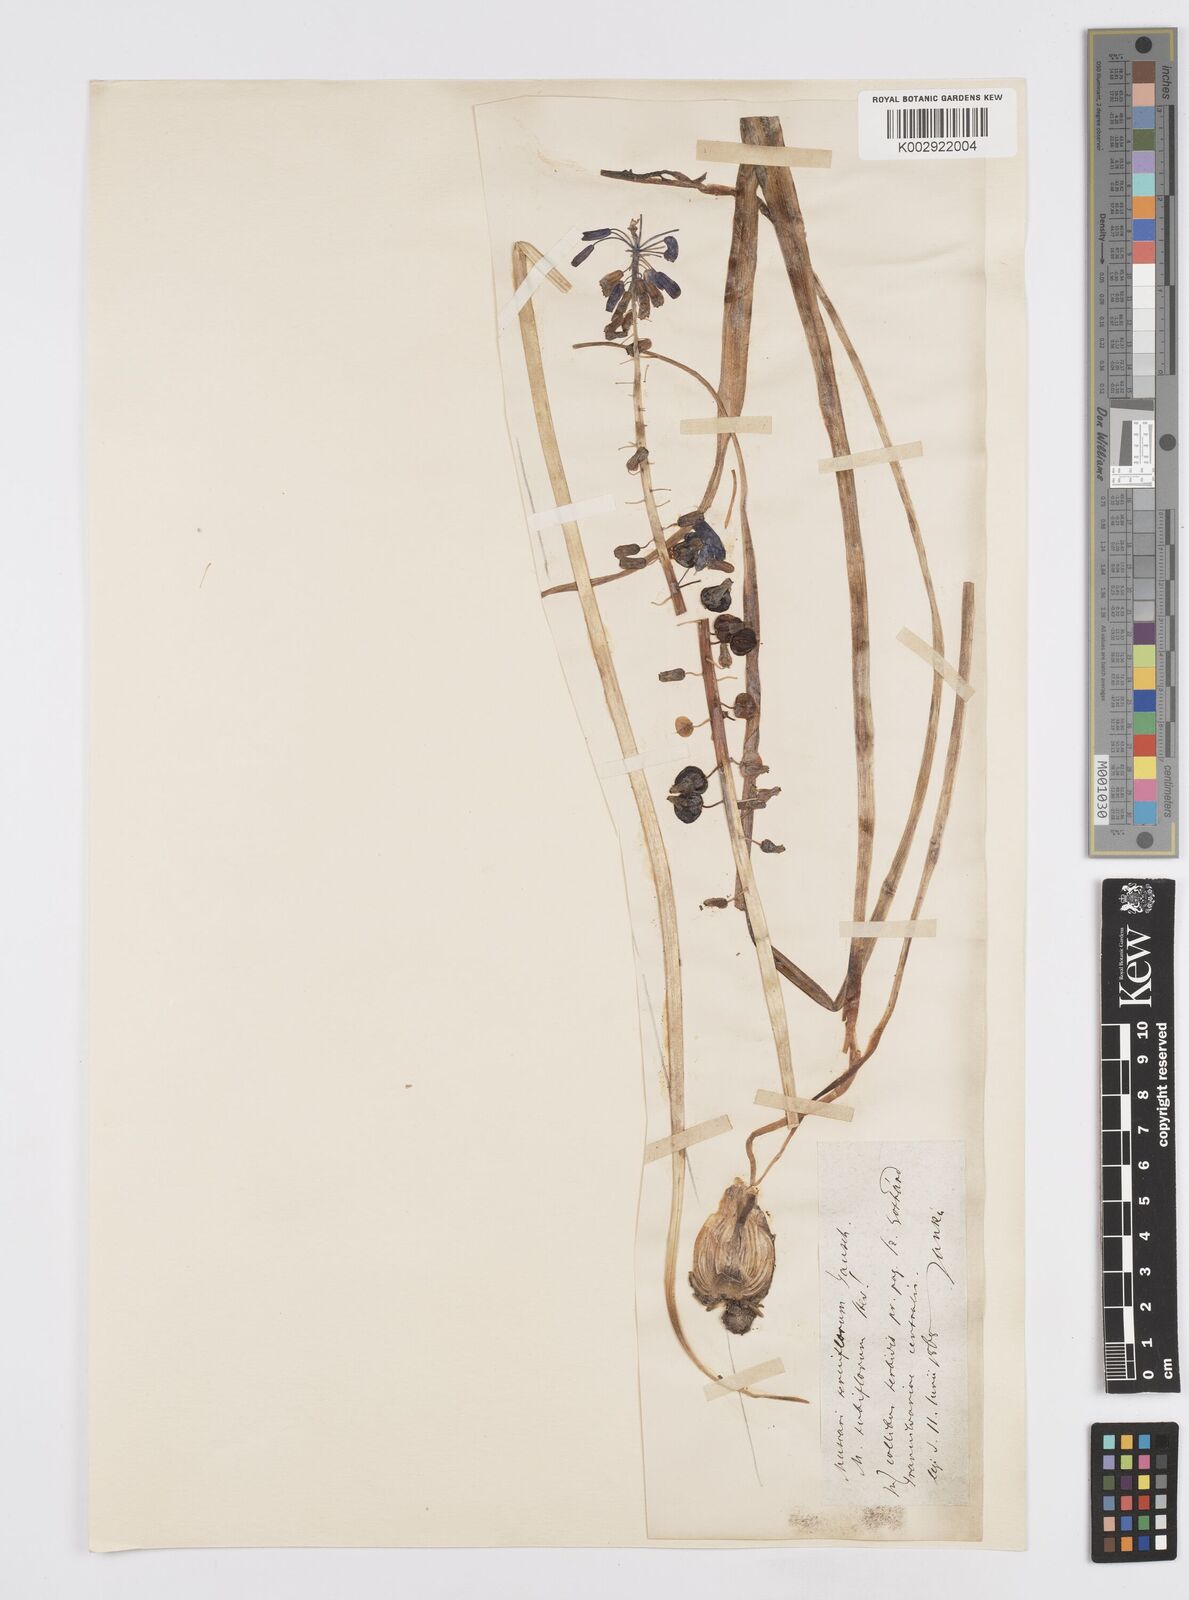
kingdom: Plantae
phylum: Tracheophyta
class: Liliopsida
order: Asparagales
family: Asparagaceae
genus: Muscari
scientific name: Muscari tenuiflorum
